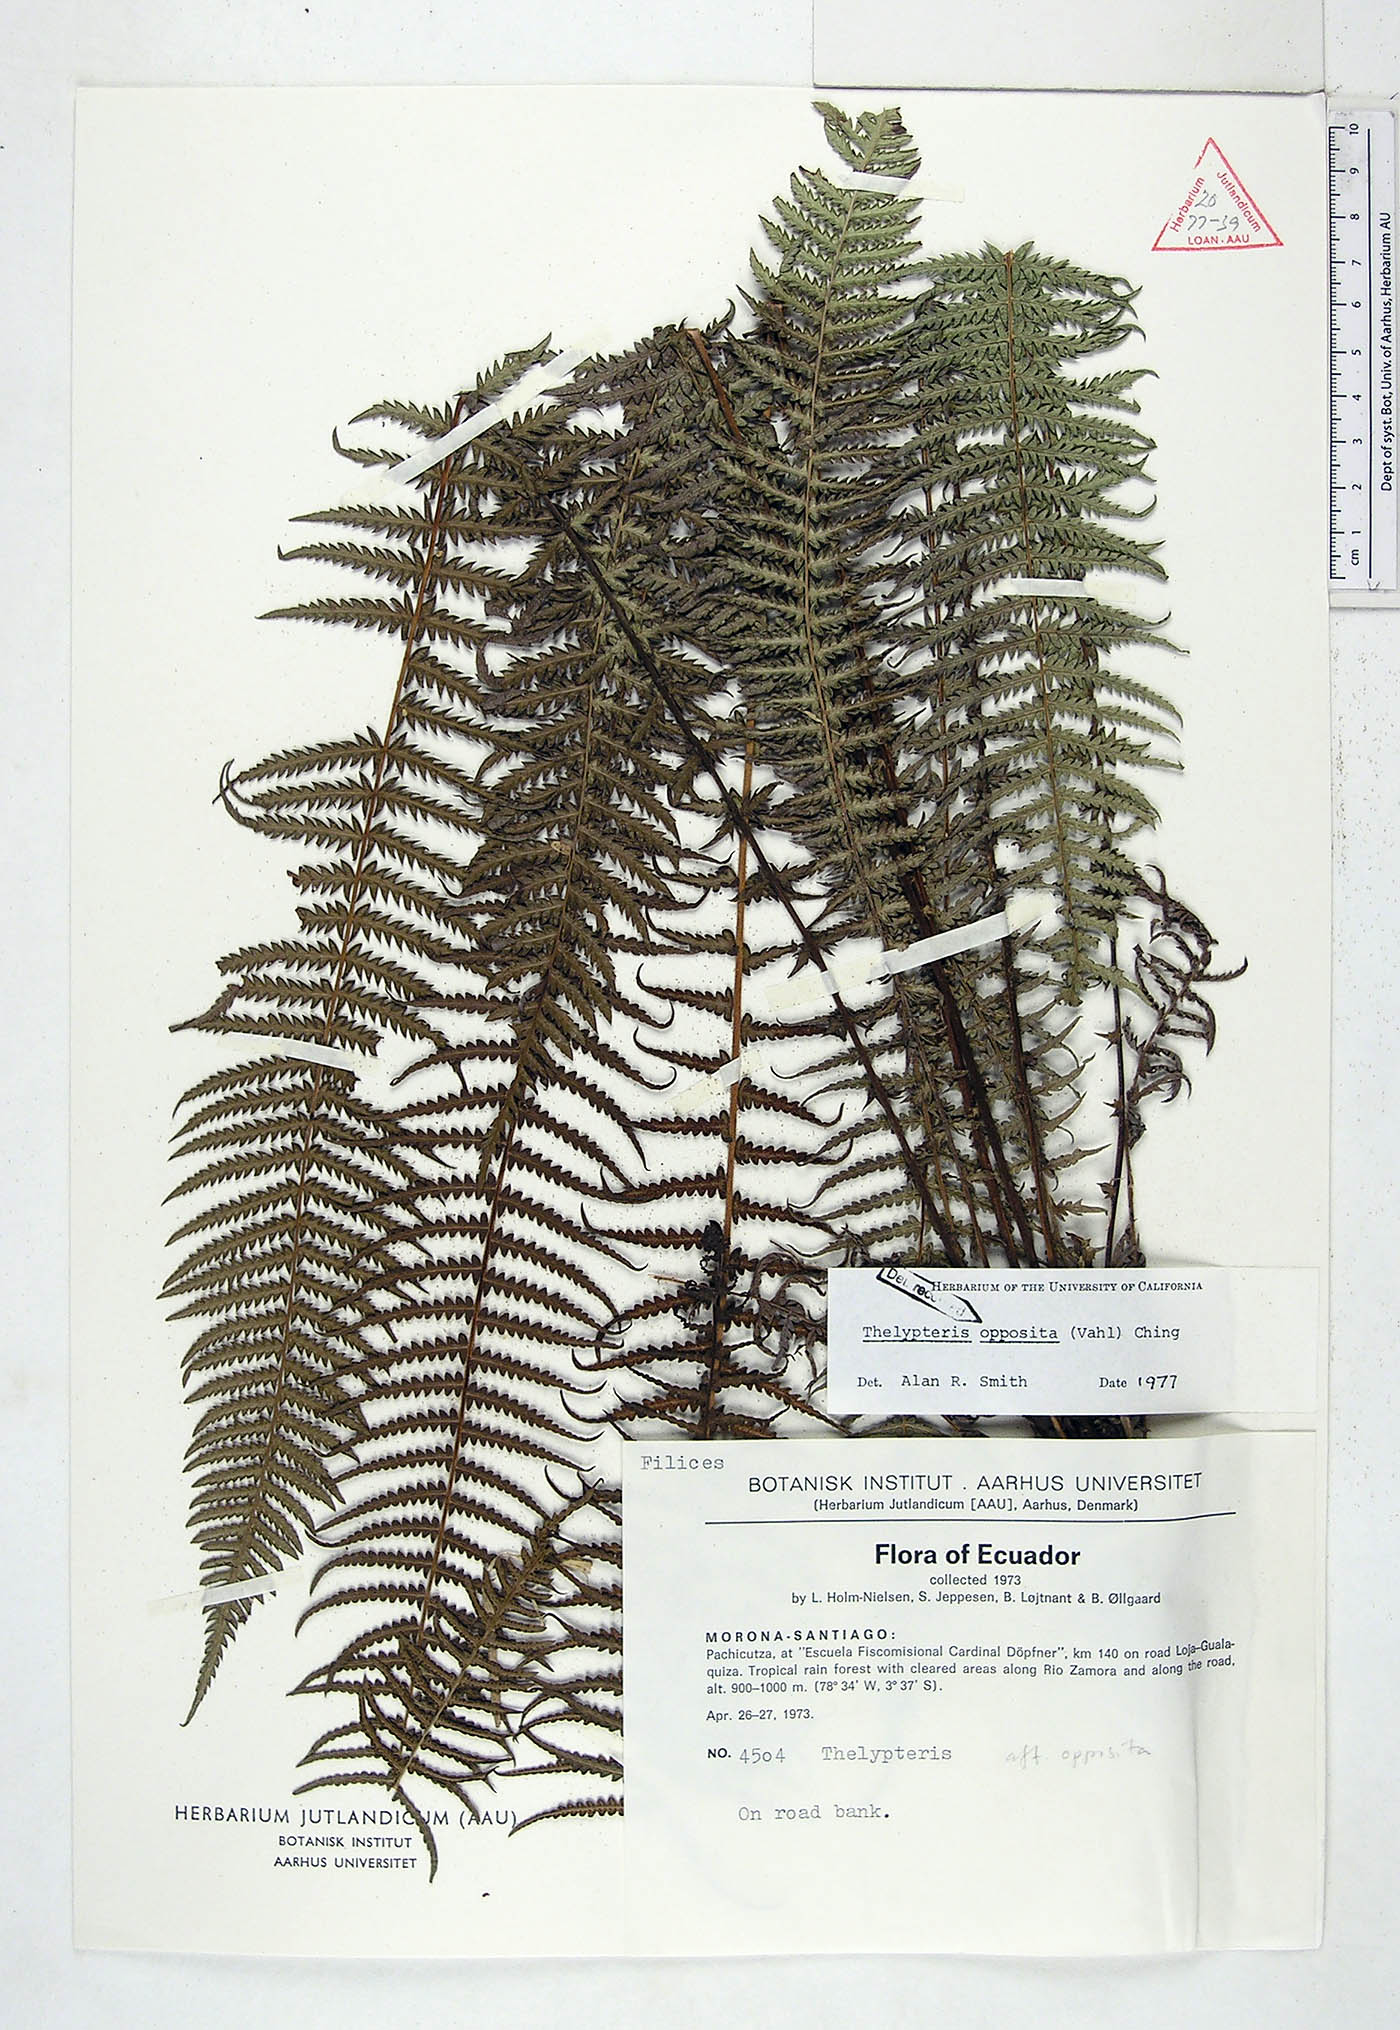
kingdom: Plantae
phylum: Tracheophyta
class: Polypodiopsida
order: Polypodiales
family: Thelypteridaceae
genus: Amauropelta
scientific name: Amauropelta opposita
